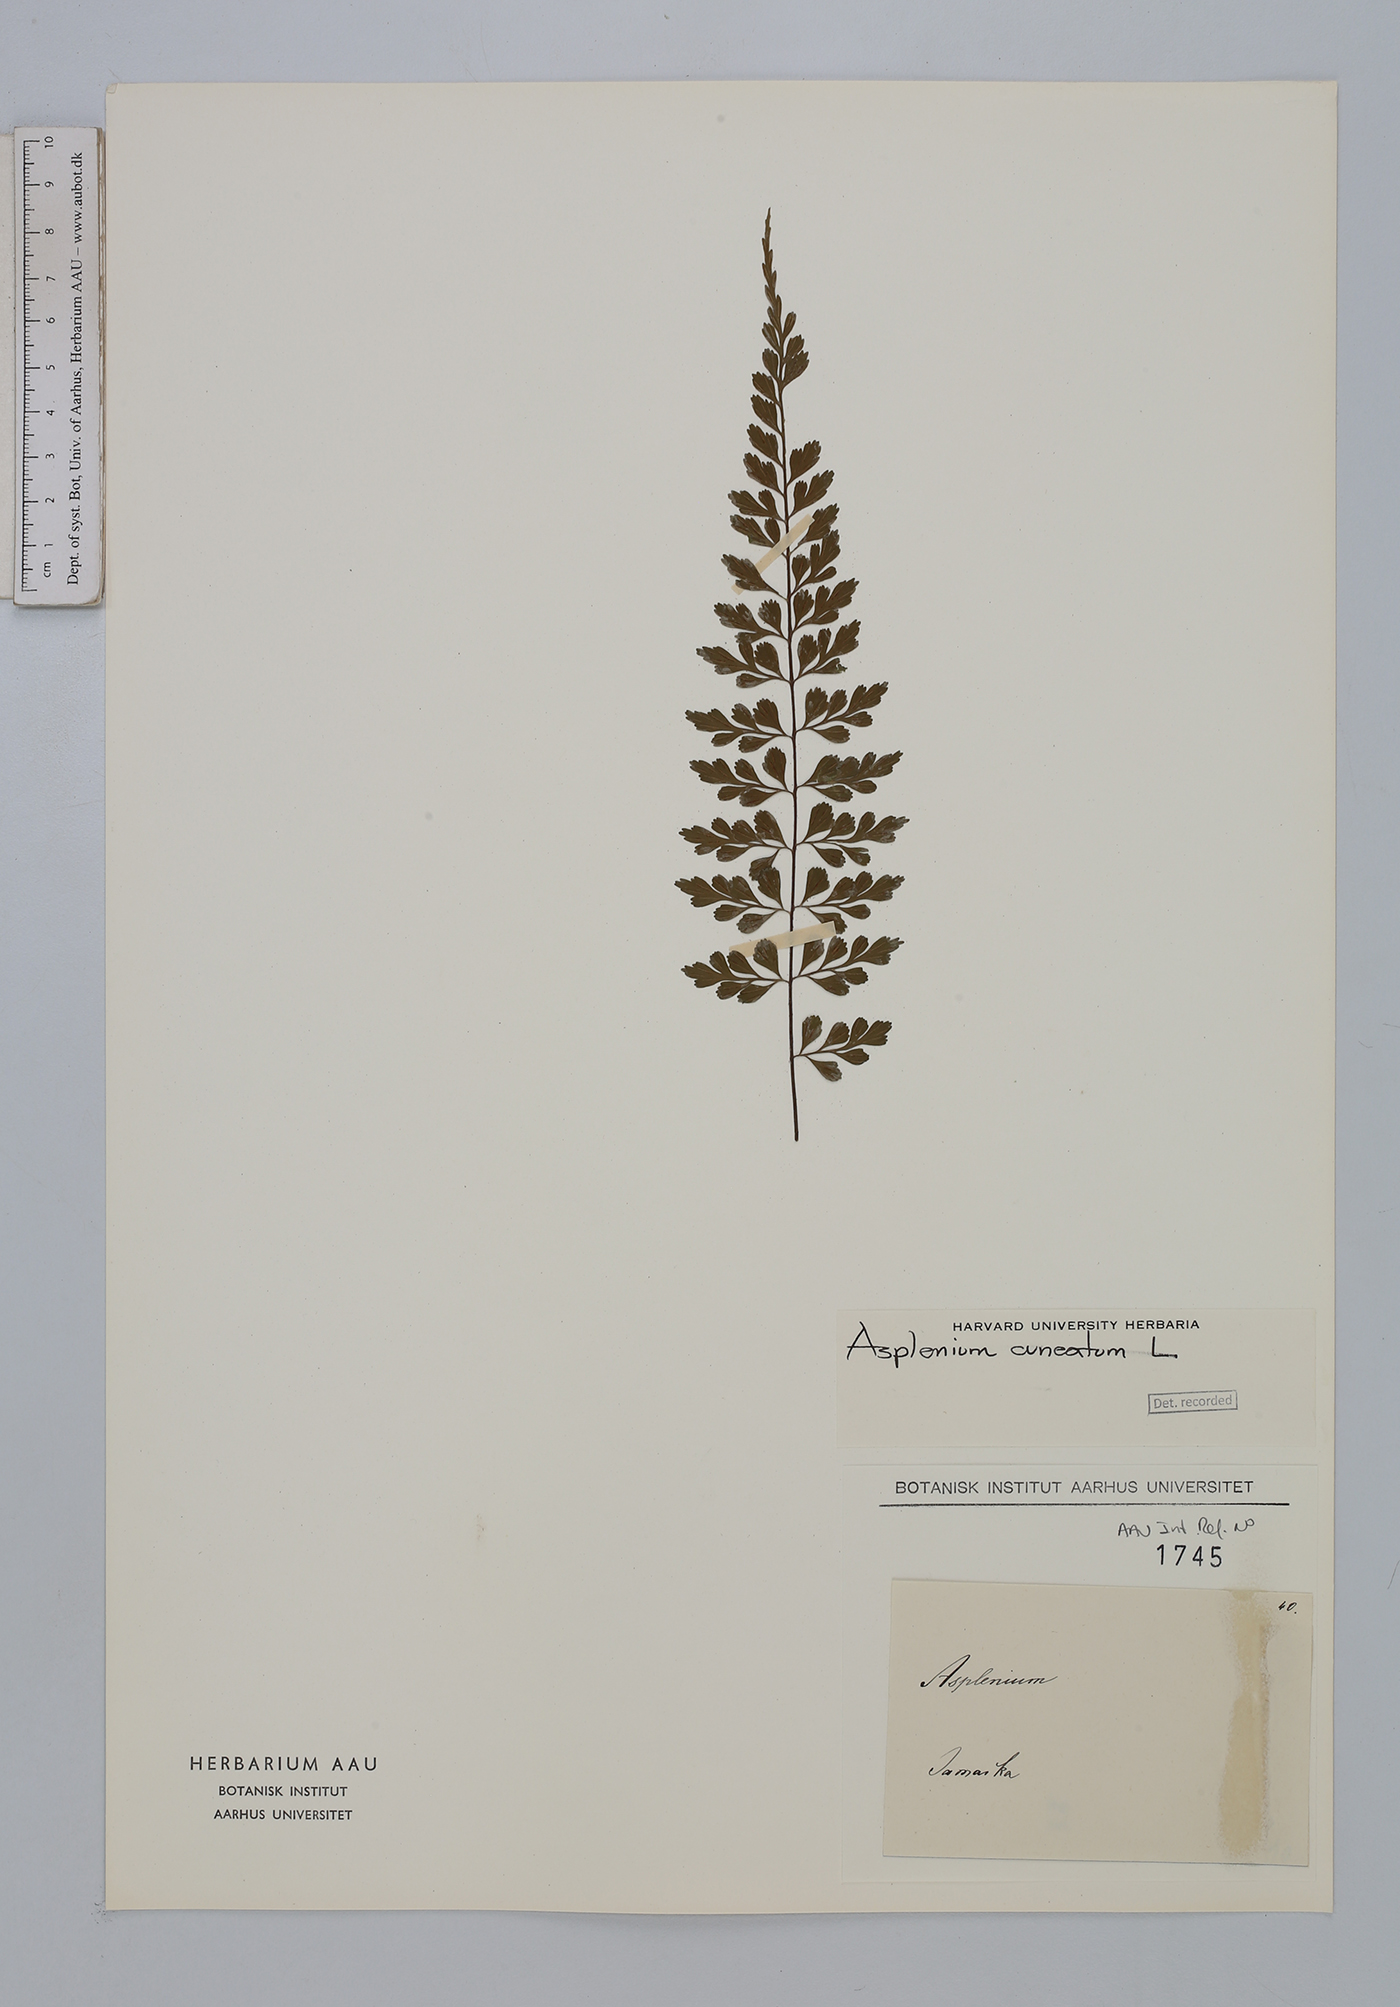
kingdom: Plantae
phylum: Tracheophyta
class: Polypodiopsida
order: Polypodiales
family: Aspleniaceae
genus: Asplenium
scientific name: Asplenium cuneatum
